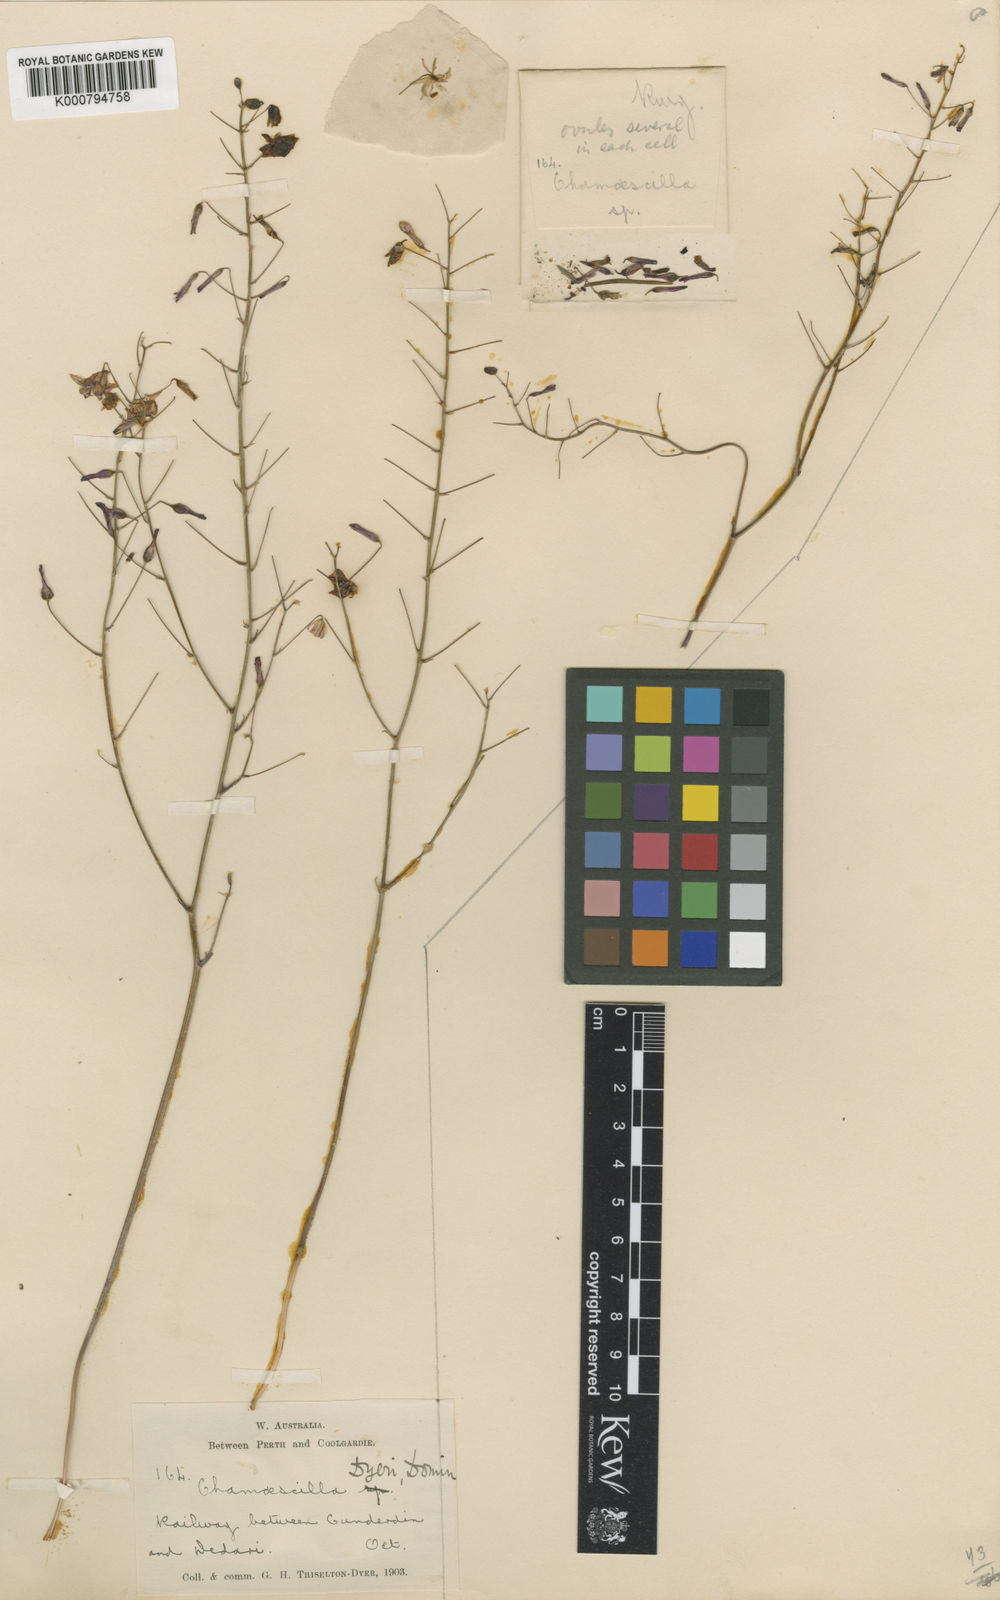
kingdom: Plantae
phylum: Tracheophyta
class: Liliopsida
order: Asparagales
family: Asparagaceae
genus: Arthropodium
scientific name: Arthropodium dyeri
